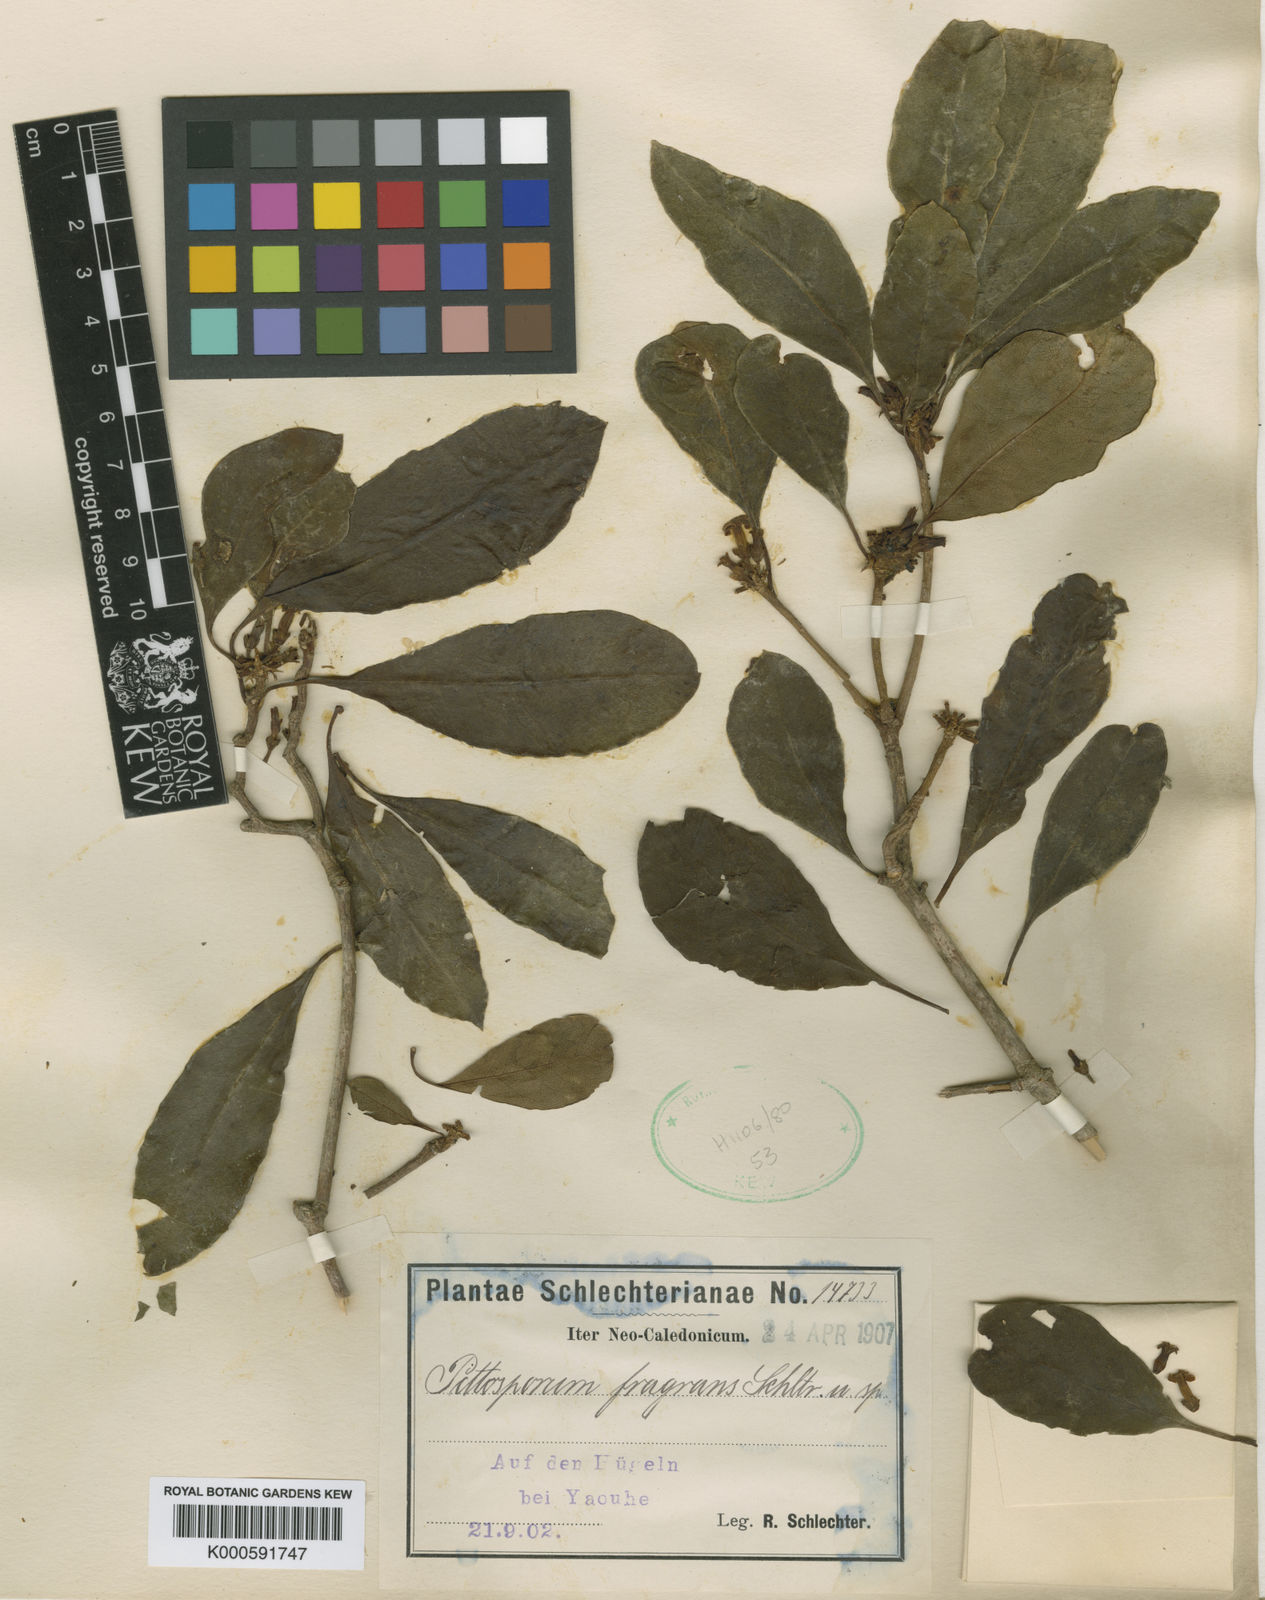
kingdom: Plantae
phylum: Tracheophyta
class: Magnoliopsida
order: Apiales
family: Pittosporaceae
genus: Pittosporum
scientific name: Pittosporum
